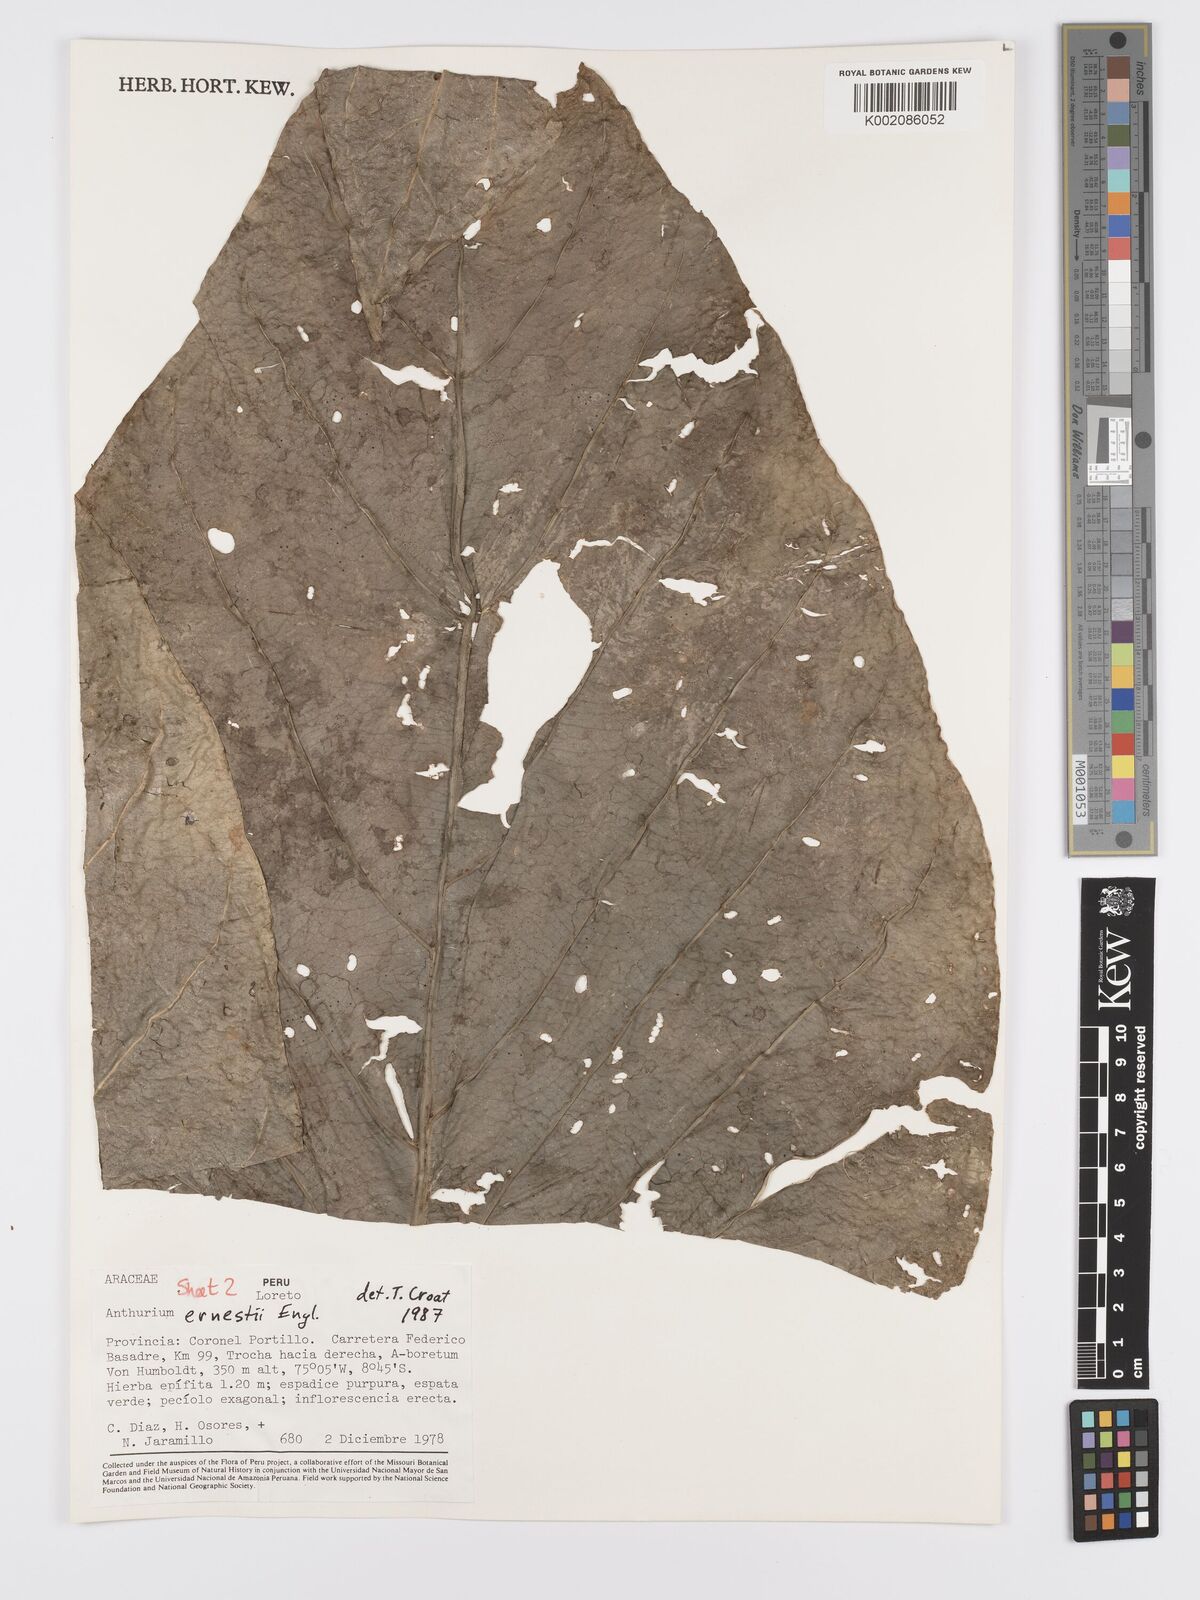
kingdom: Plantae
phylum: Tracheophyta
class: Liliopsida
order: Alismatales
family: Araceae
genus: Anthurium
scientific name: Anthurium ernesti
